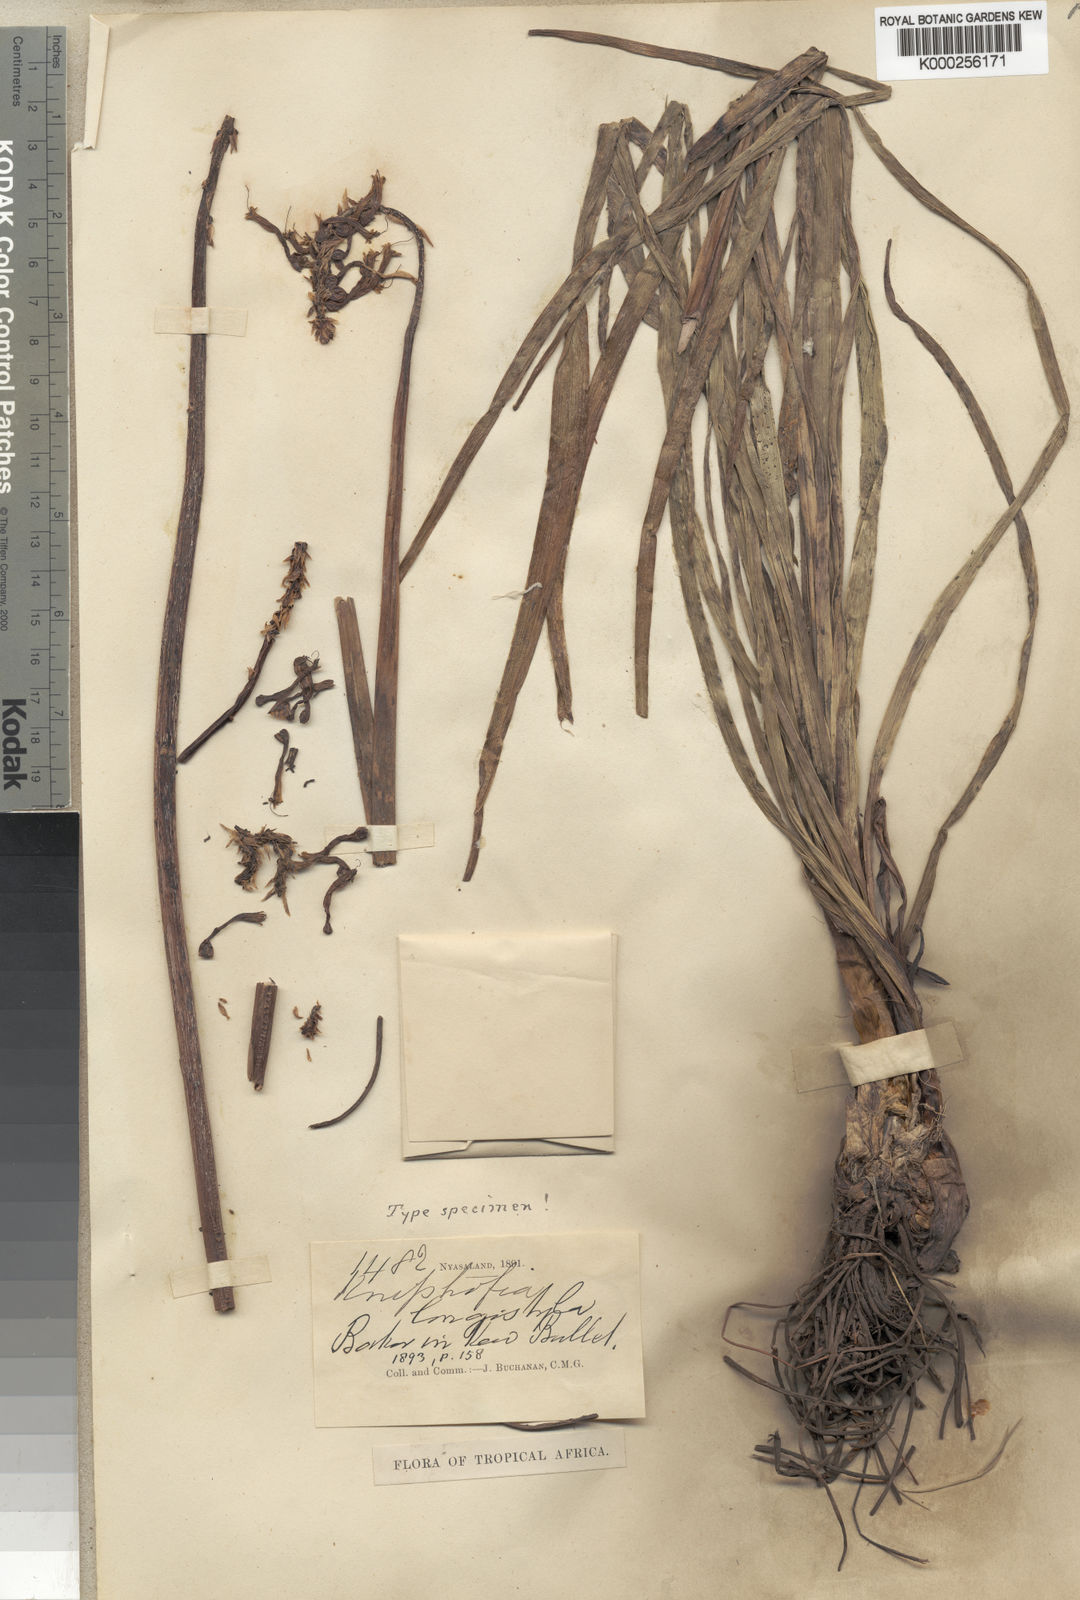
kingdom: Plantae
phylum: Tracheophyta
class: Liliopsida
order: Asparagales
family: Asphodelaceae
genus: Kniphofia
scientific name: Kniphofia linearifolia
